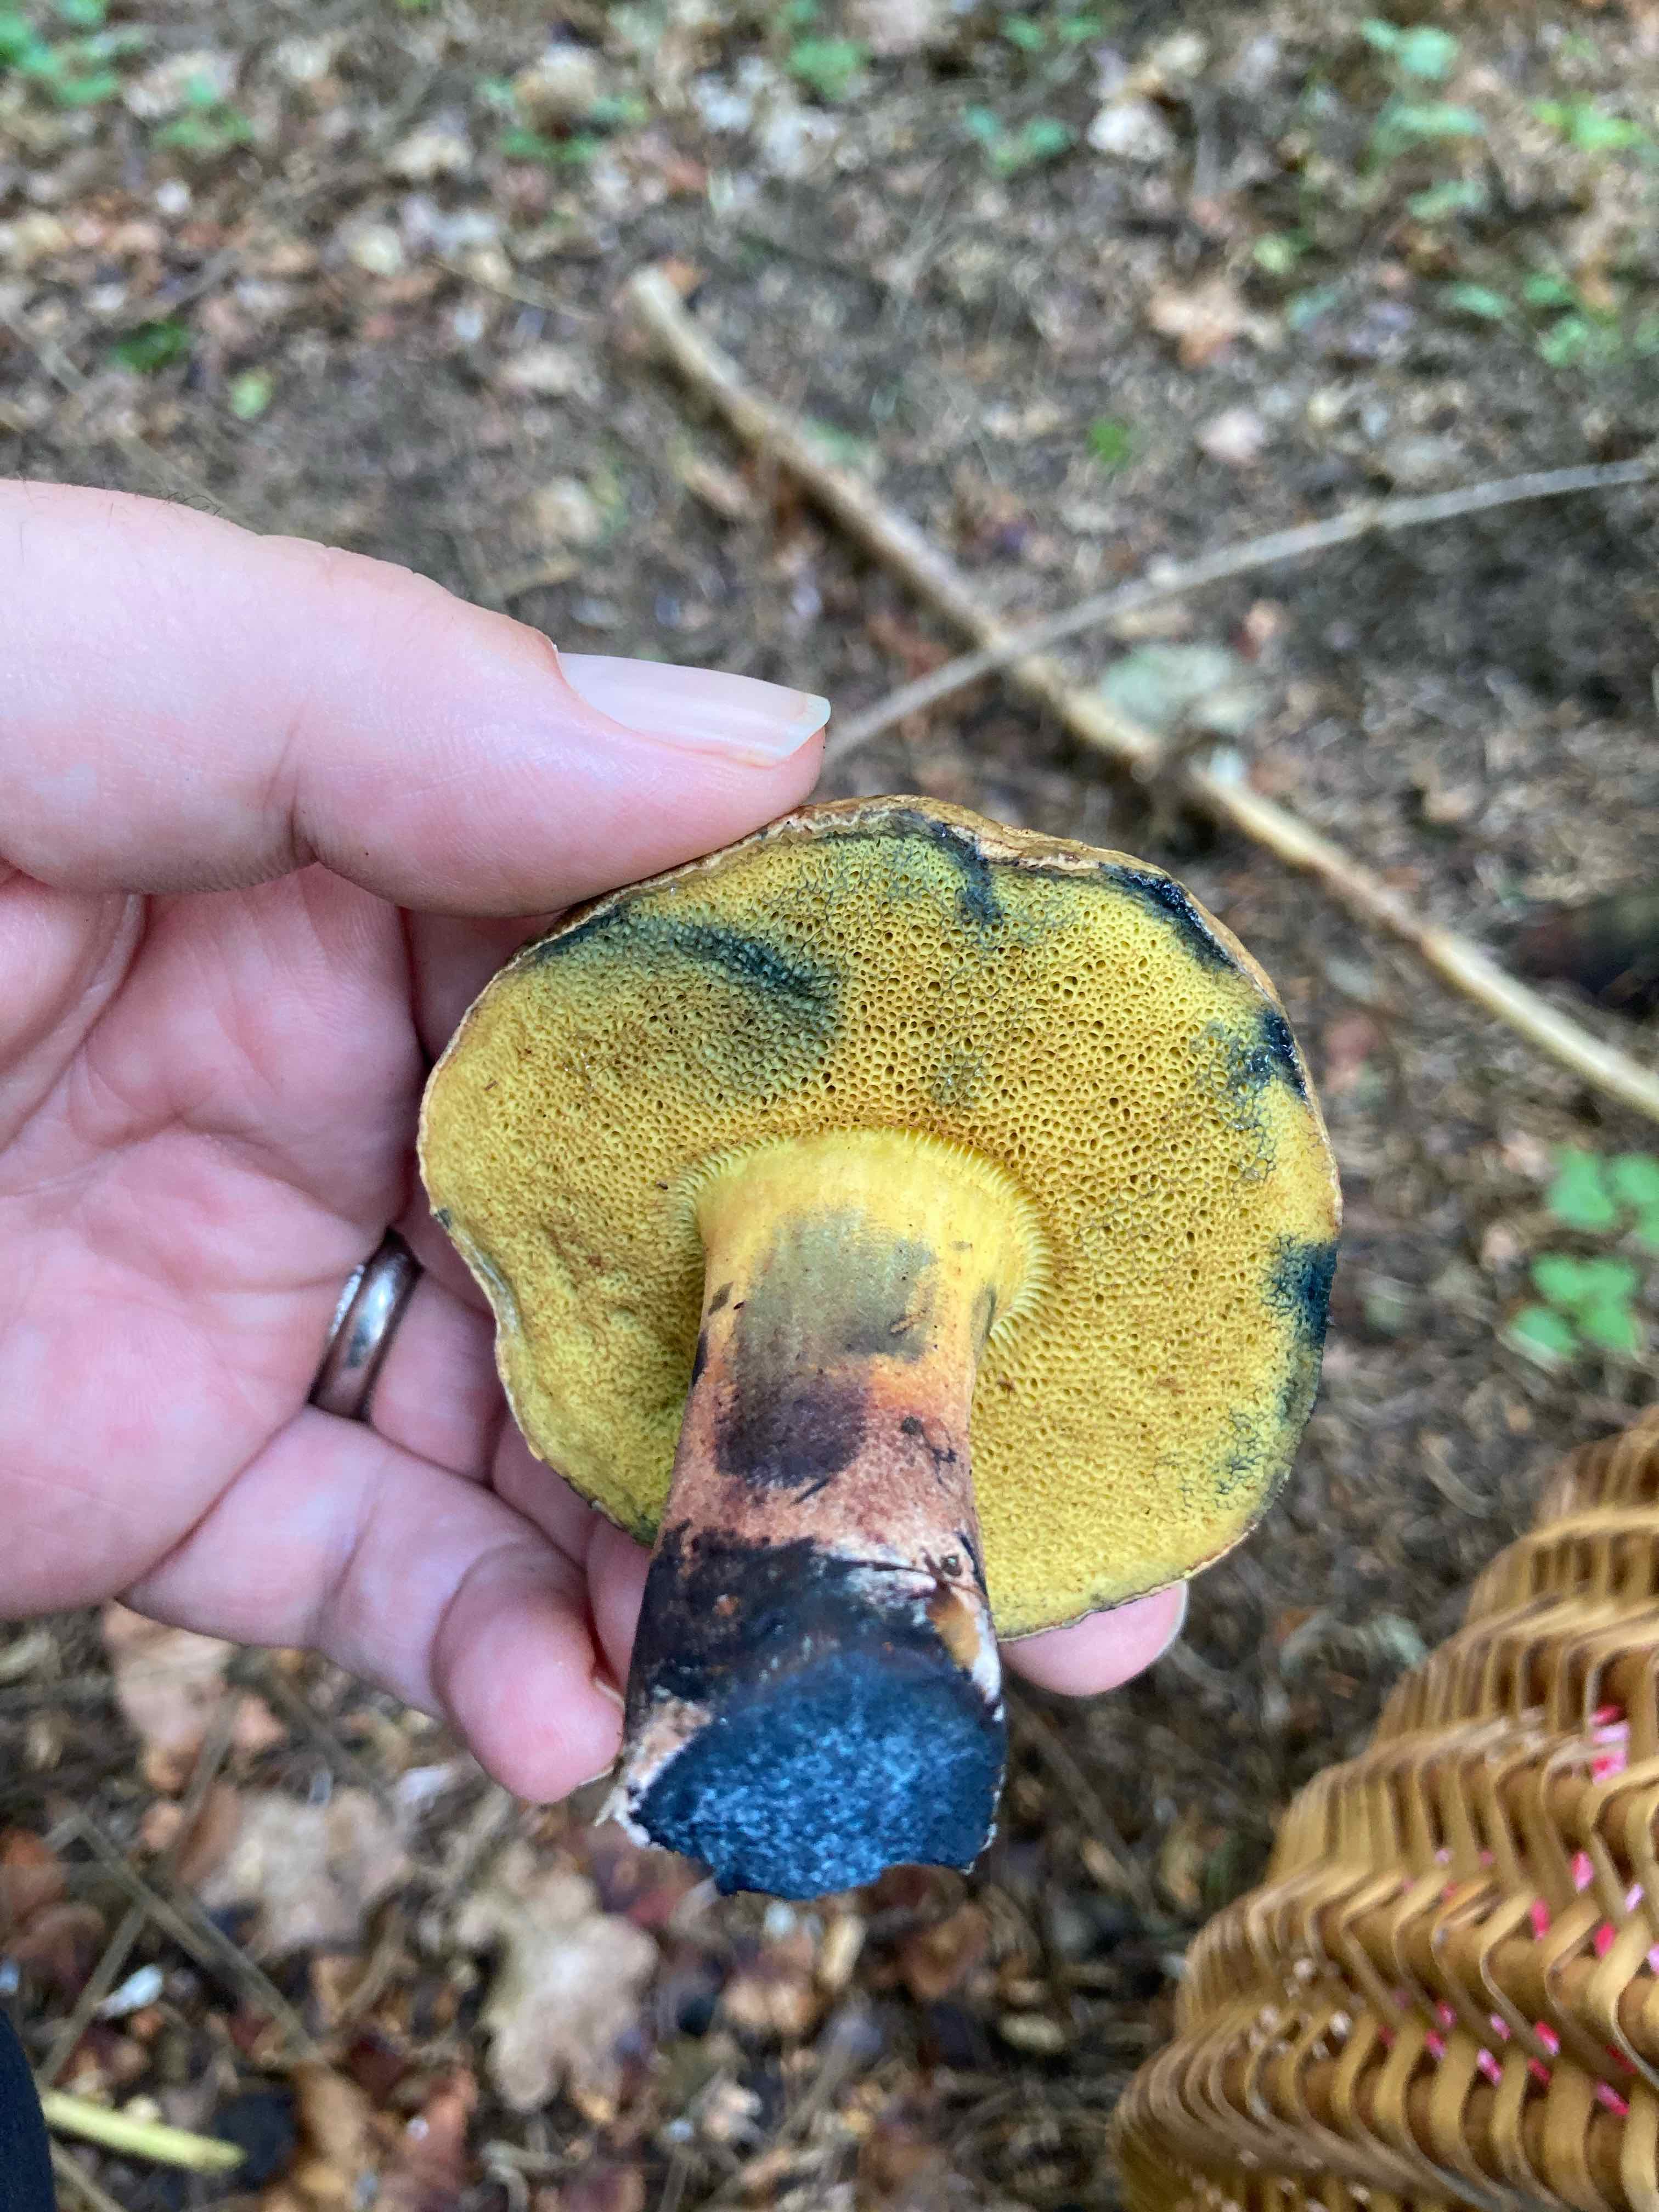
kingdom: Fungi
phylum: Basidiomycota
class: Agaricomycetes
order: Boletales
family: Boletaceae
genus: Cyanoboletus
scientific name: Cyanoboletus pulverulentus
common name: sortblånende rørhat
